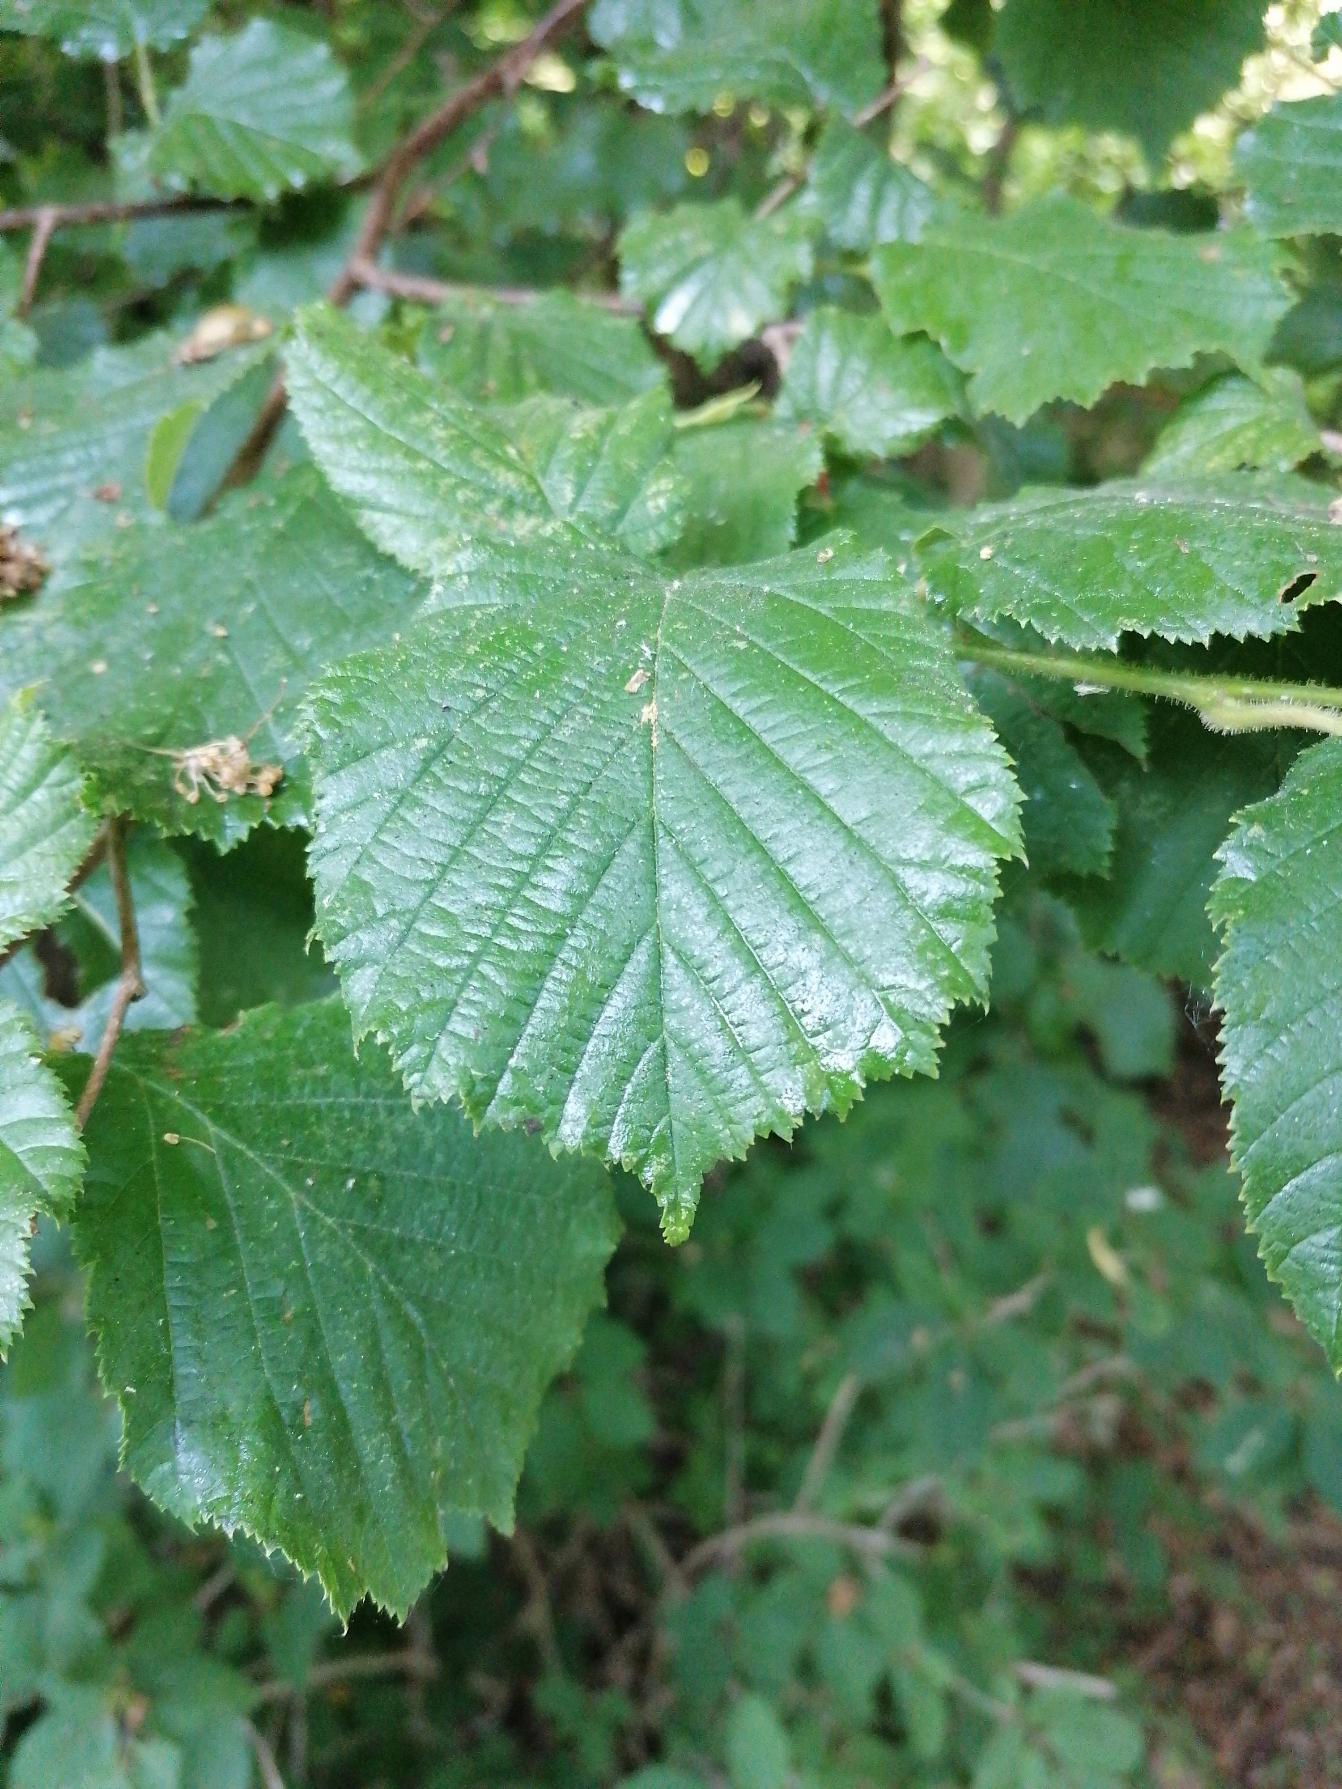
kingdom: Plantae
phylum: Tracheophyta
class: Magnoliopsida
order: Fagales
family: Betulaceae
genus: Corylus
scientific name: Corylus avellana
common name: Hassel
